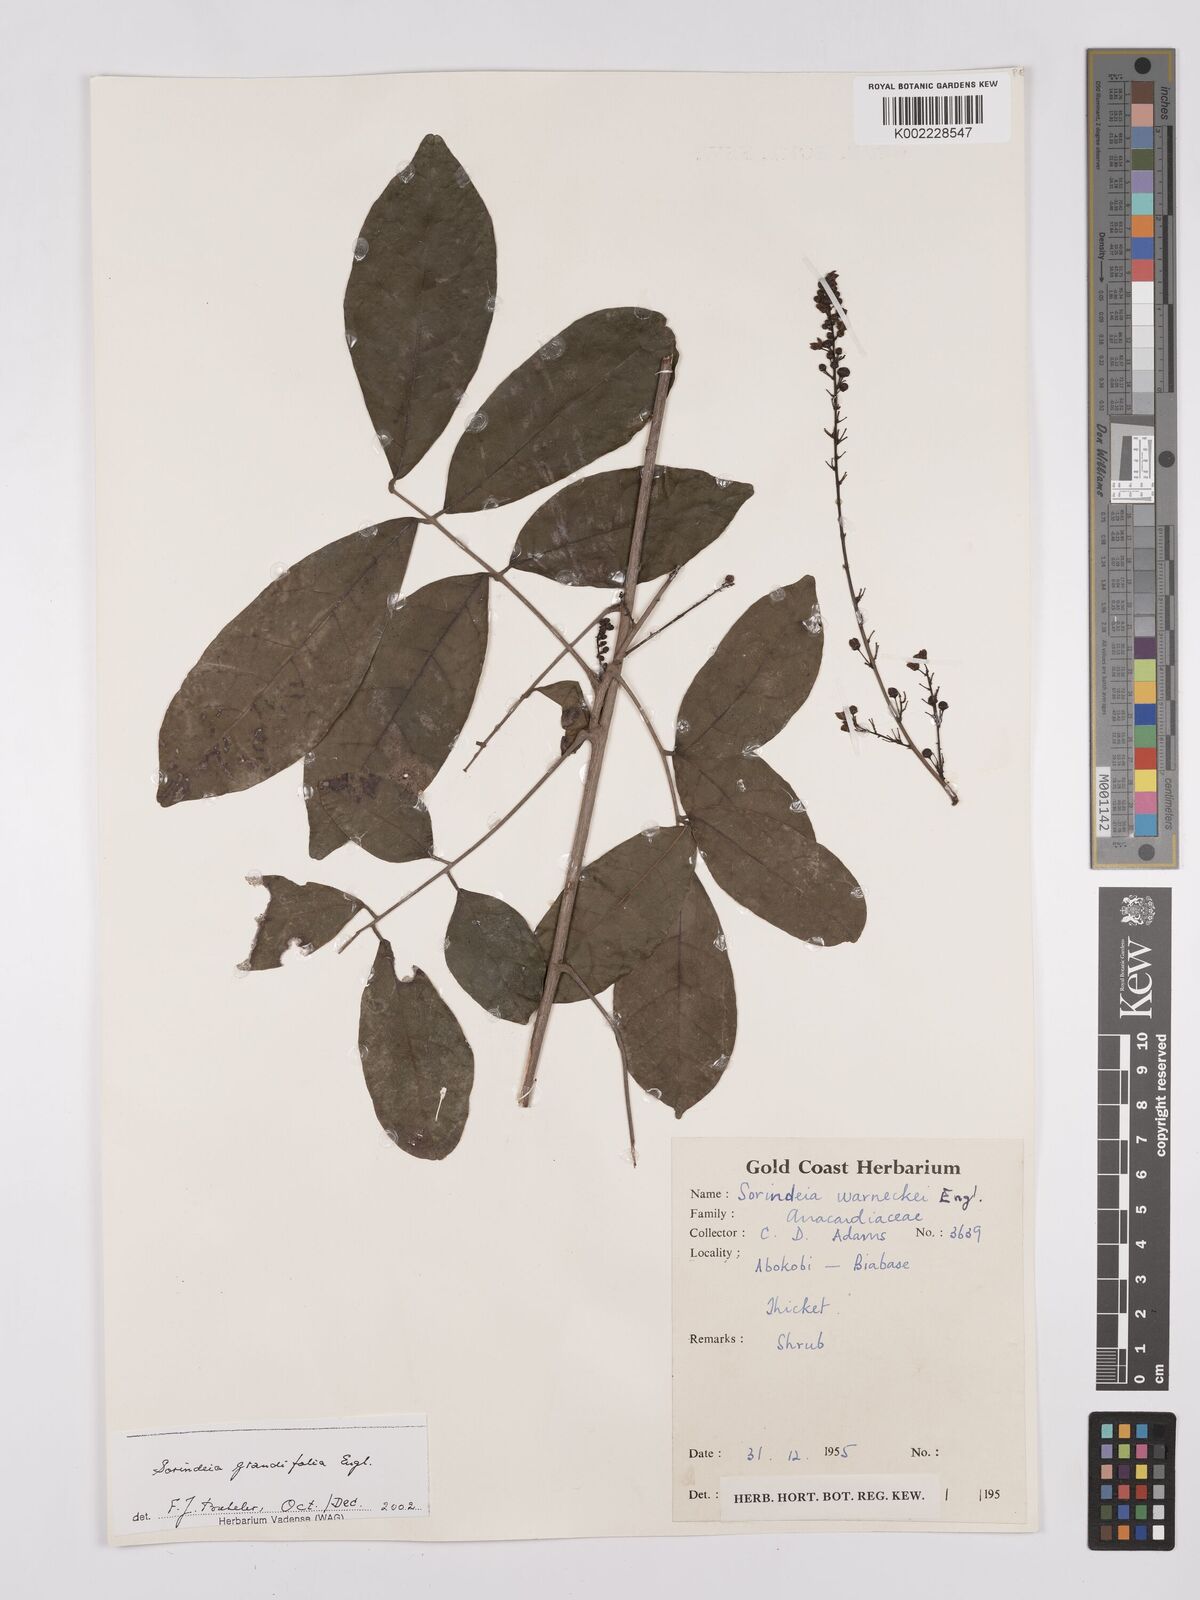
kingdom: Plantae
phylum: Tracheophyta
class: Magnoliopsida
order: Sapindales
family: Anacardiaceae
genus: Sorindeia
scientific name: Sorindeia grandifolia
